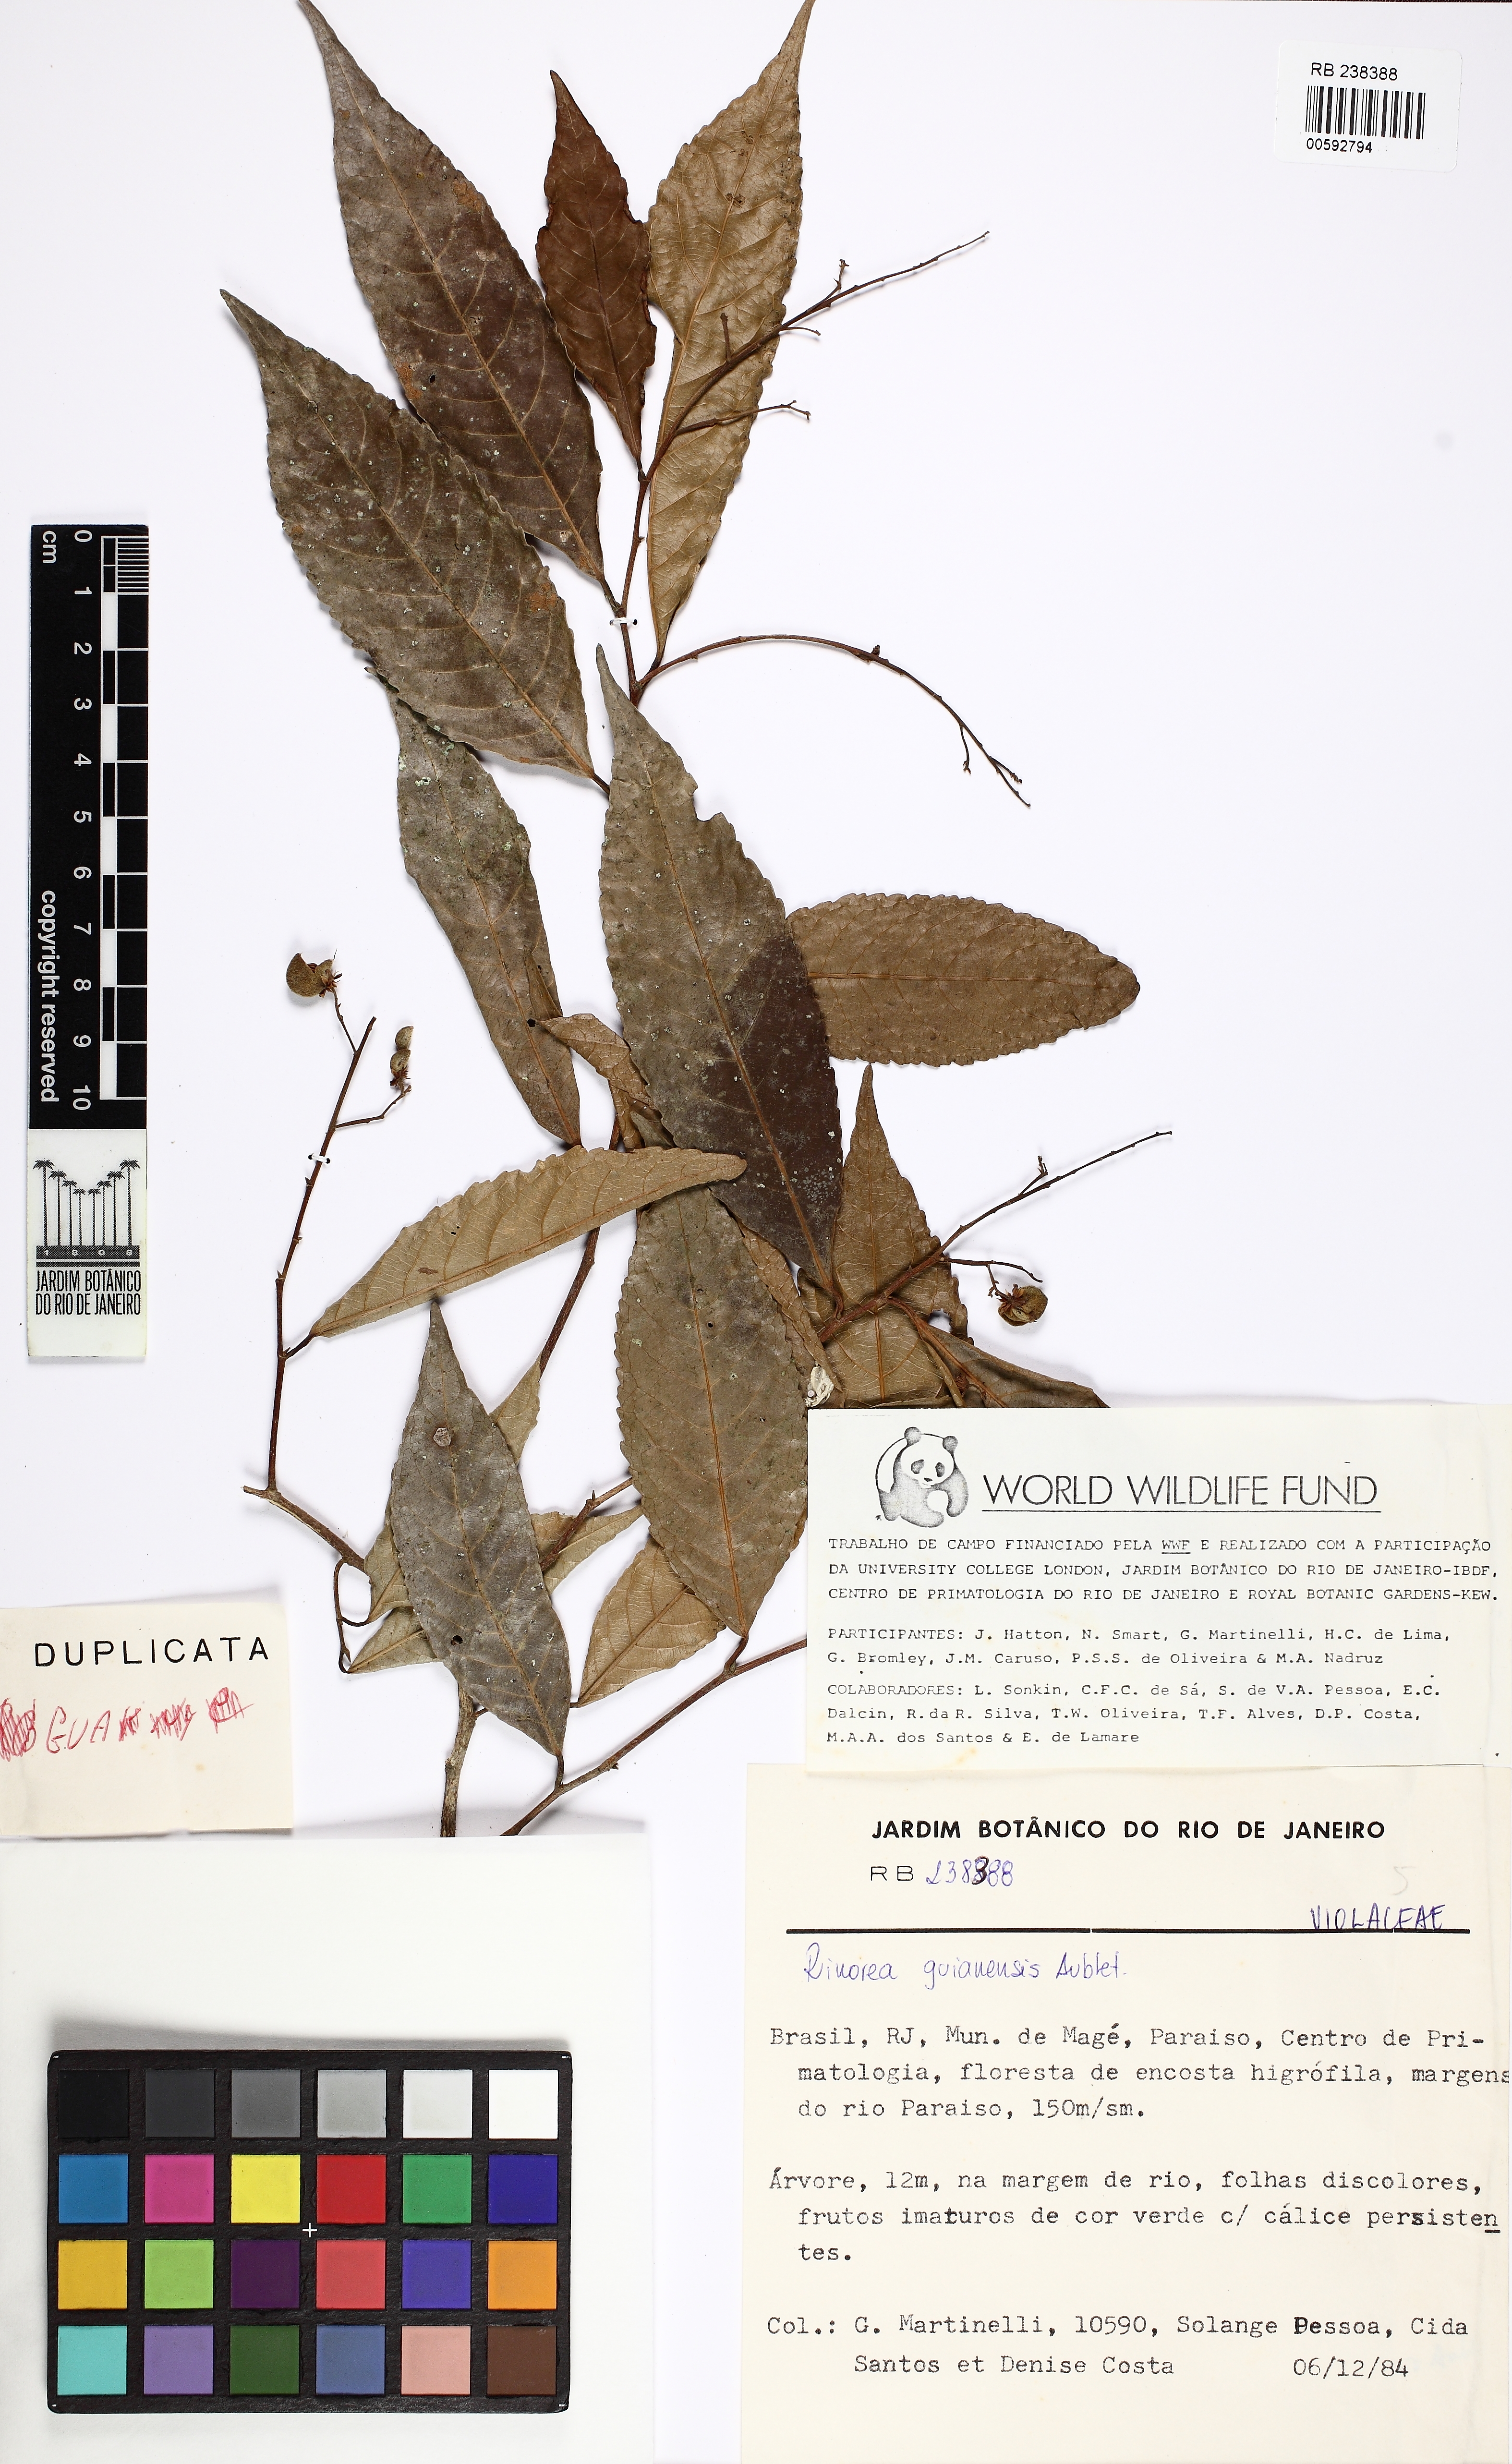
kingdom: Plantae
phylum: Tracheophyta
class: Magnoliopsida
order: Malpighiales
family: Violaceae
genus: Rinorea
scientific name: Rinorea guianensis
